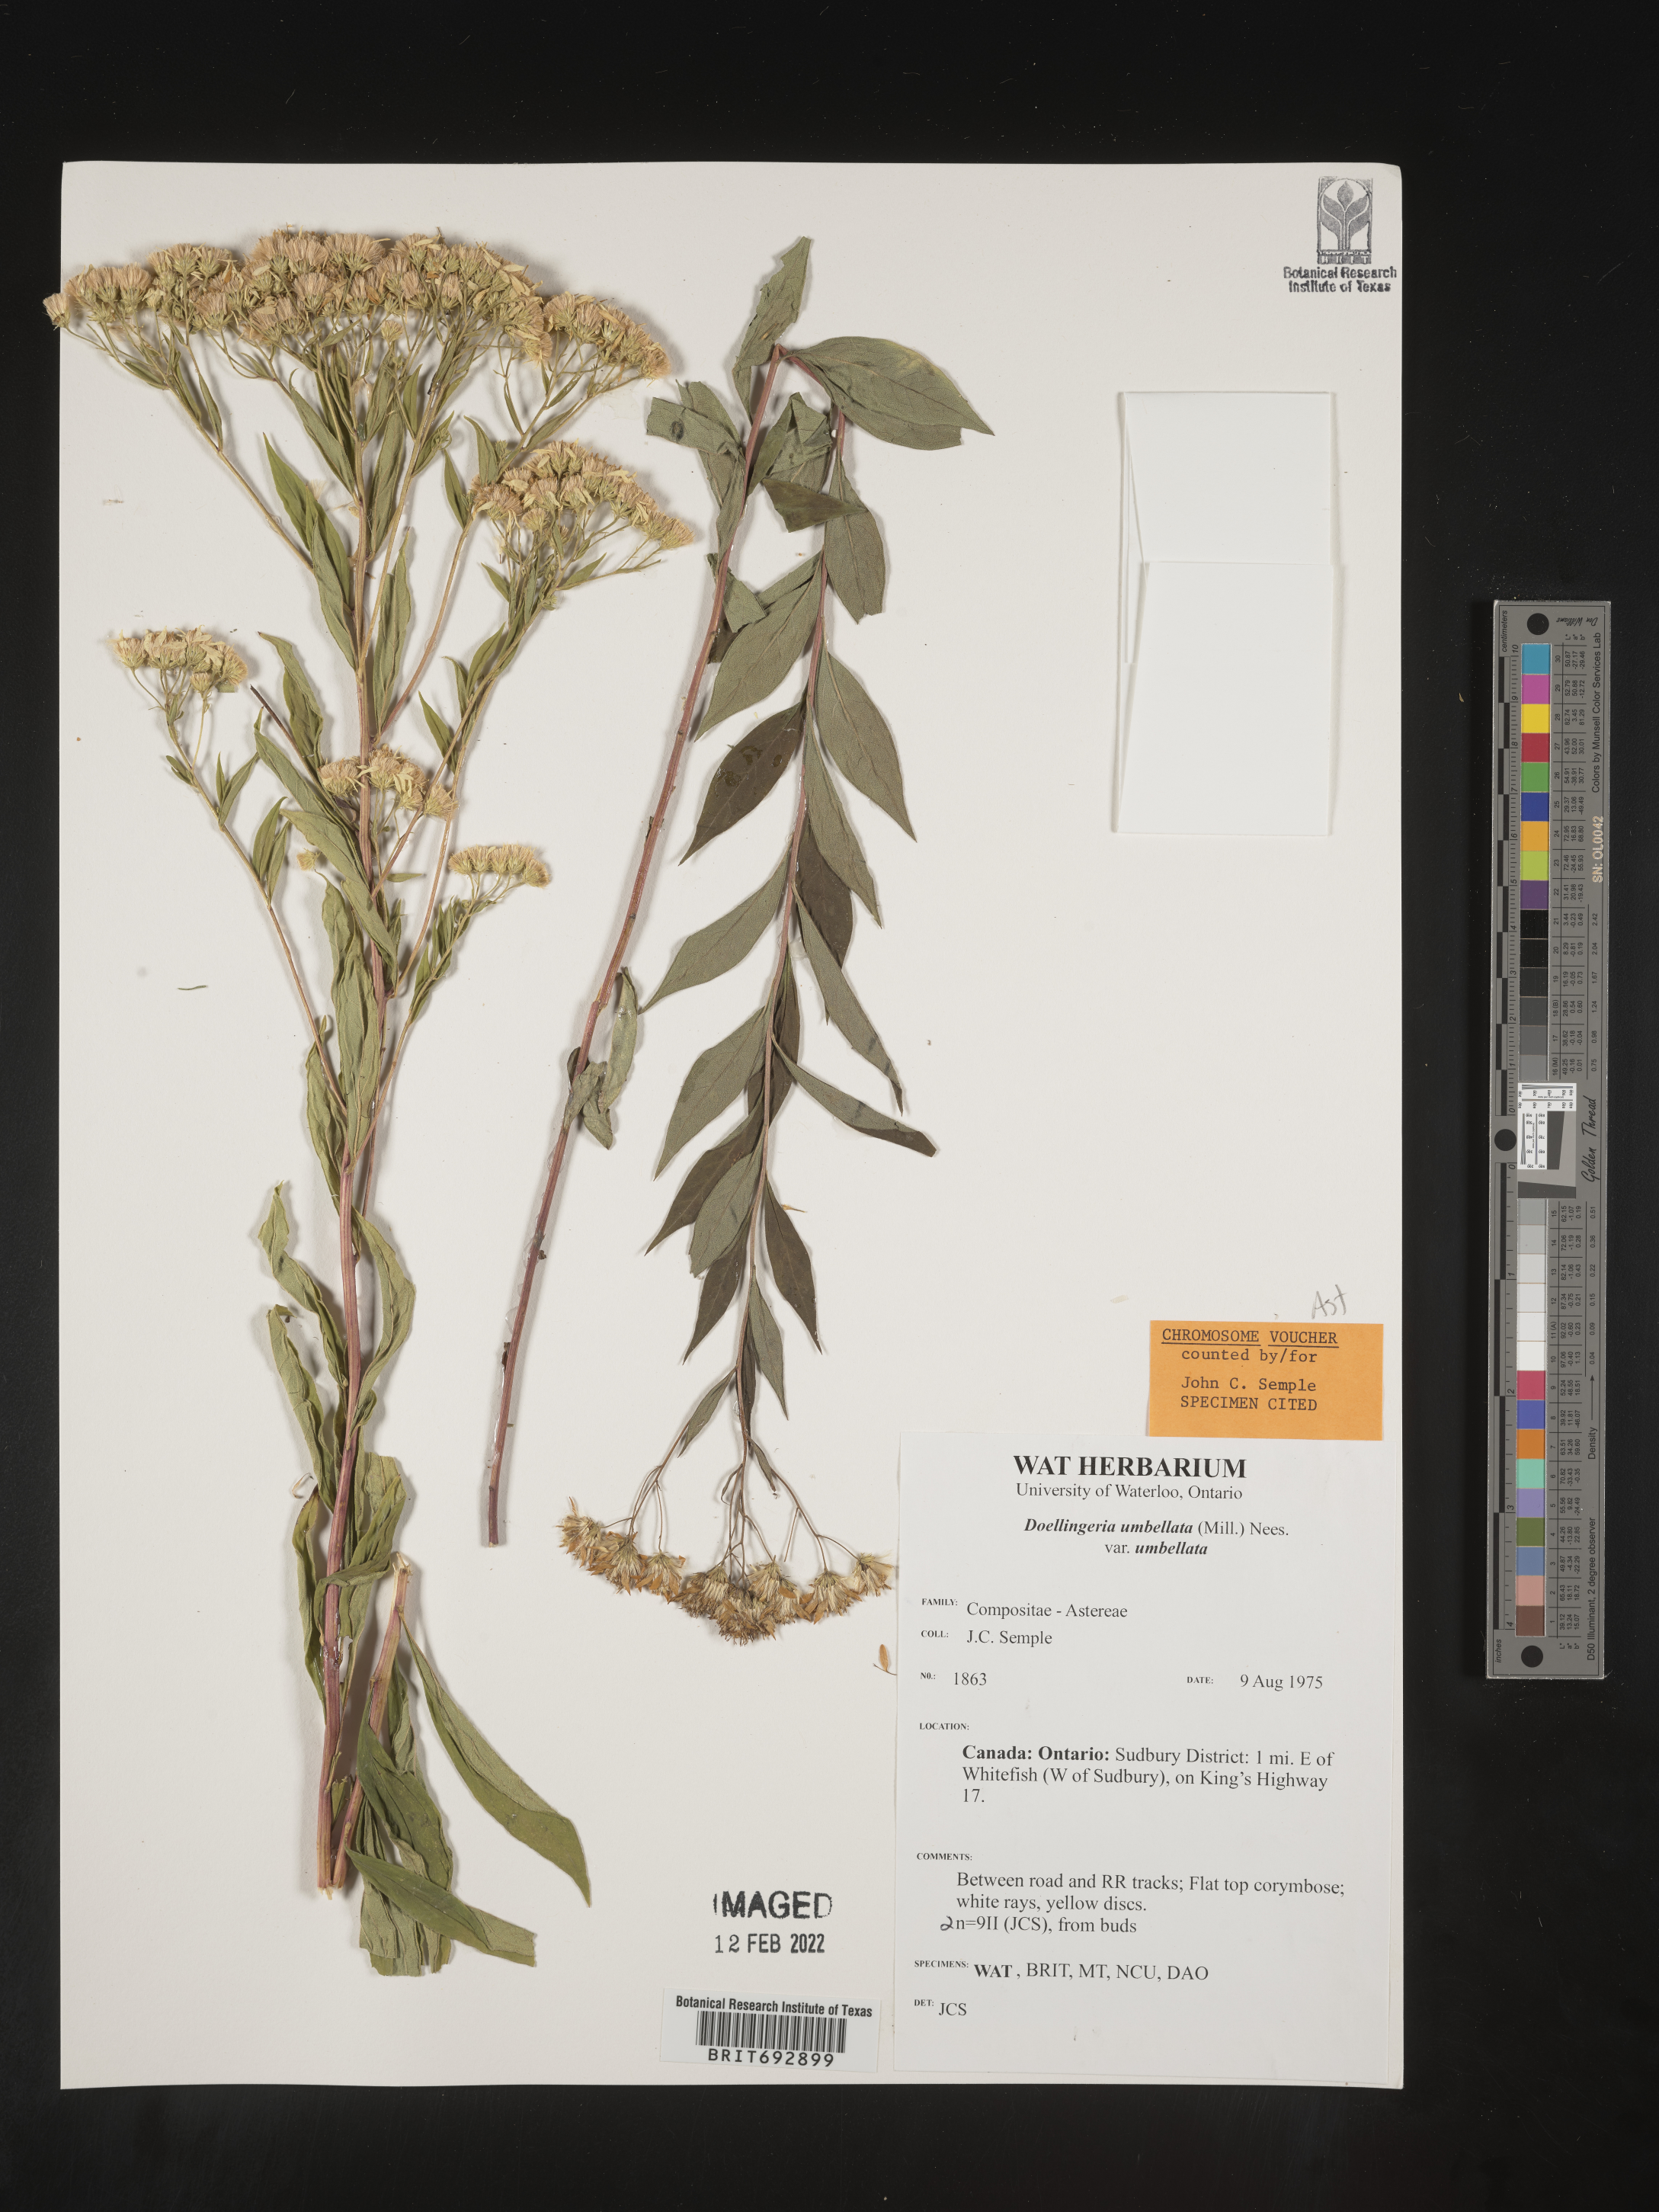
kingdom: Plantae
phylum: Tracheophyta
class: Magnoliopsida
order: Asterales
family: Asteraceae
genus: Doellingeria
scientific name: Doellingeria umbellata
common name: Flat-top white aster
